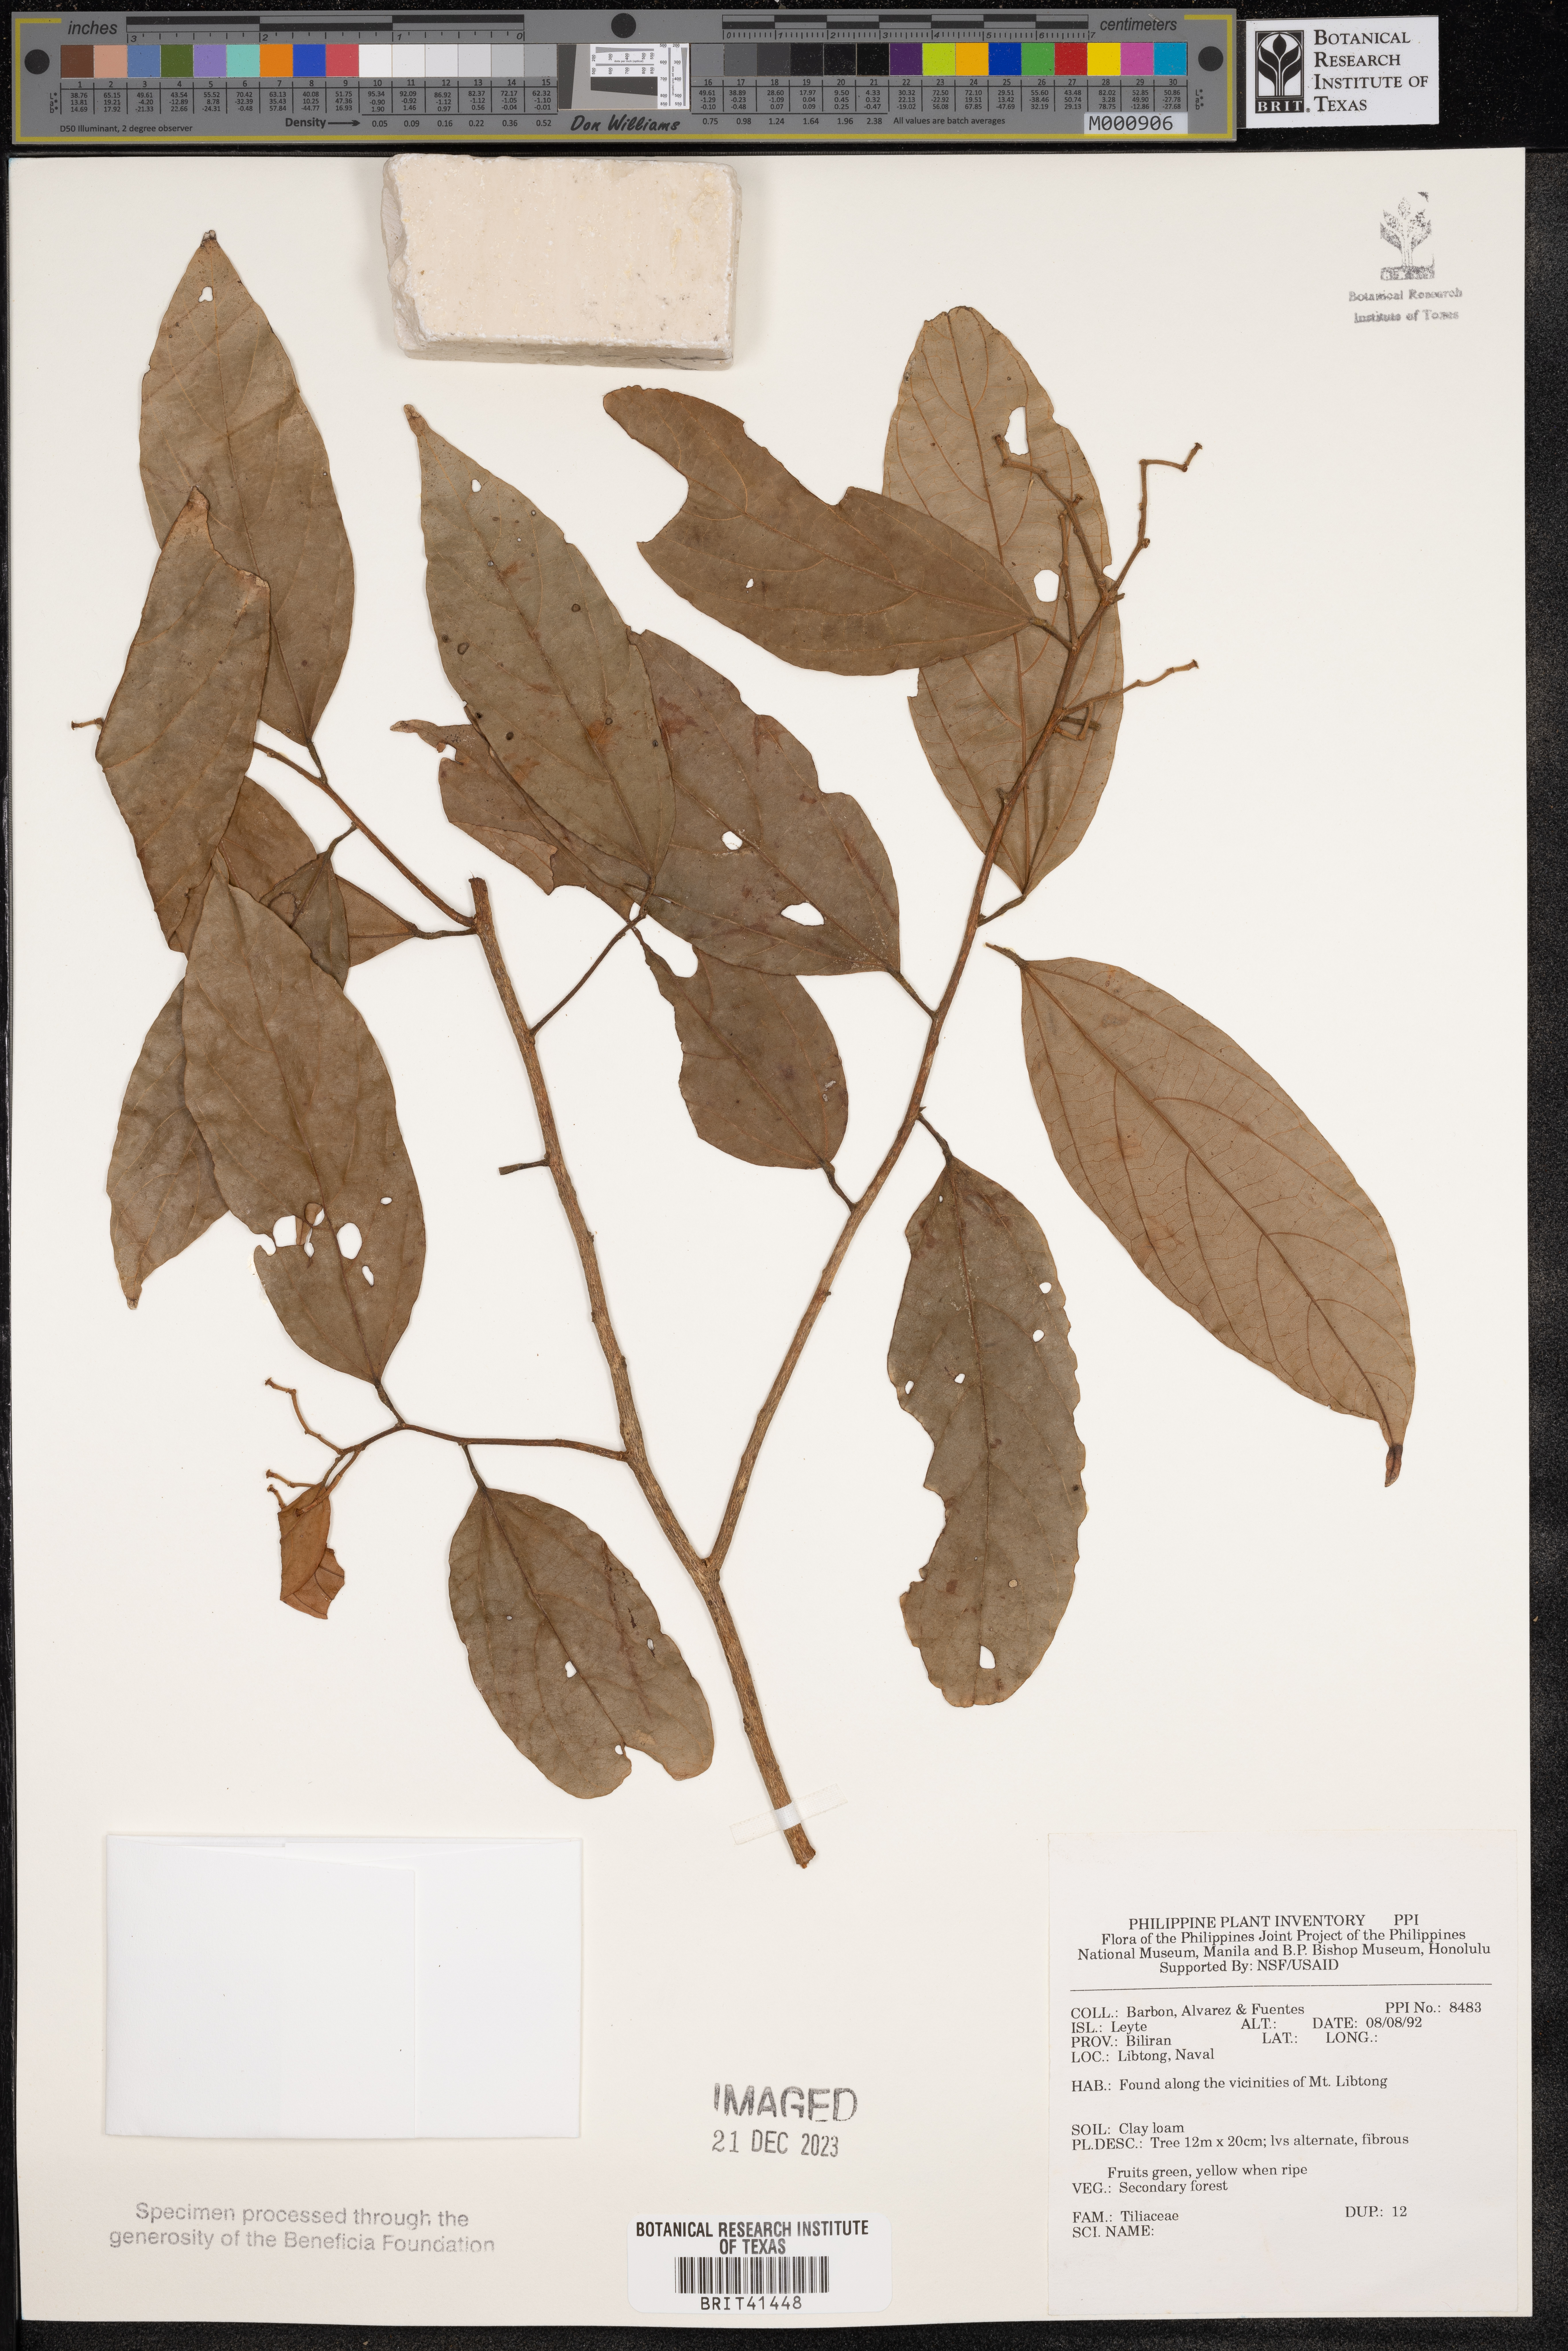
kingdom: Plantae
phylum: Tracheophyta
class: Magnoliopsida
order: Malvales
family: Tiliaceae
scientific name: Tiliaceae
